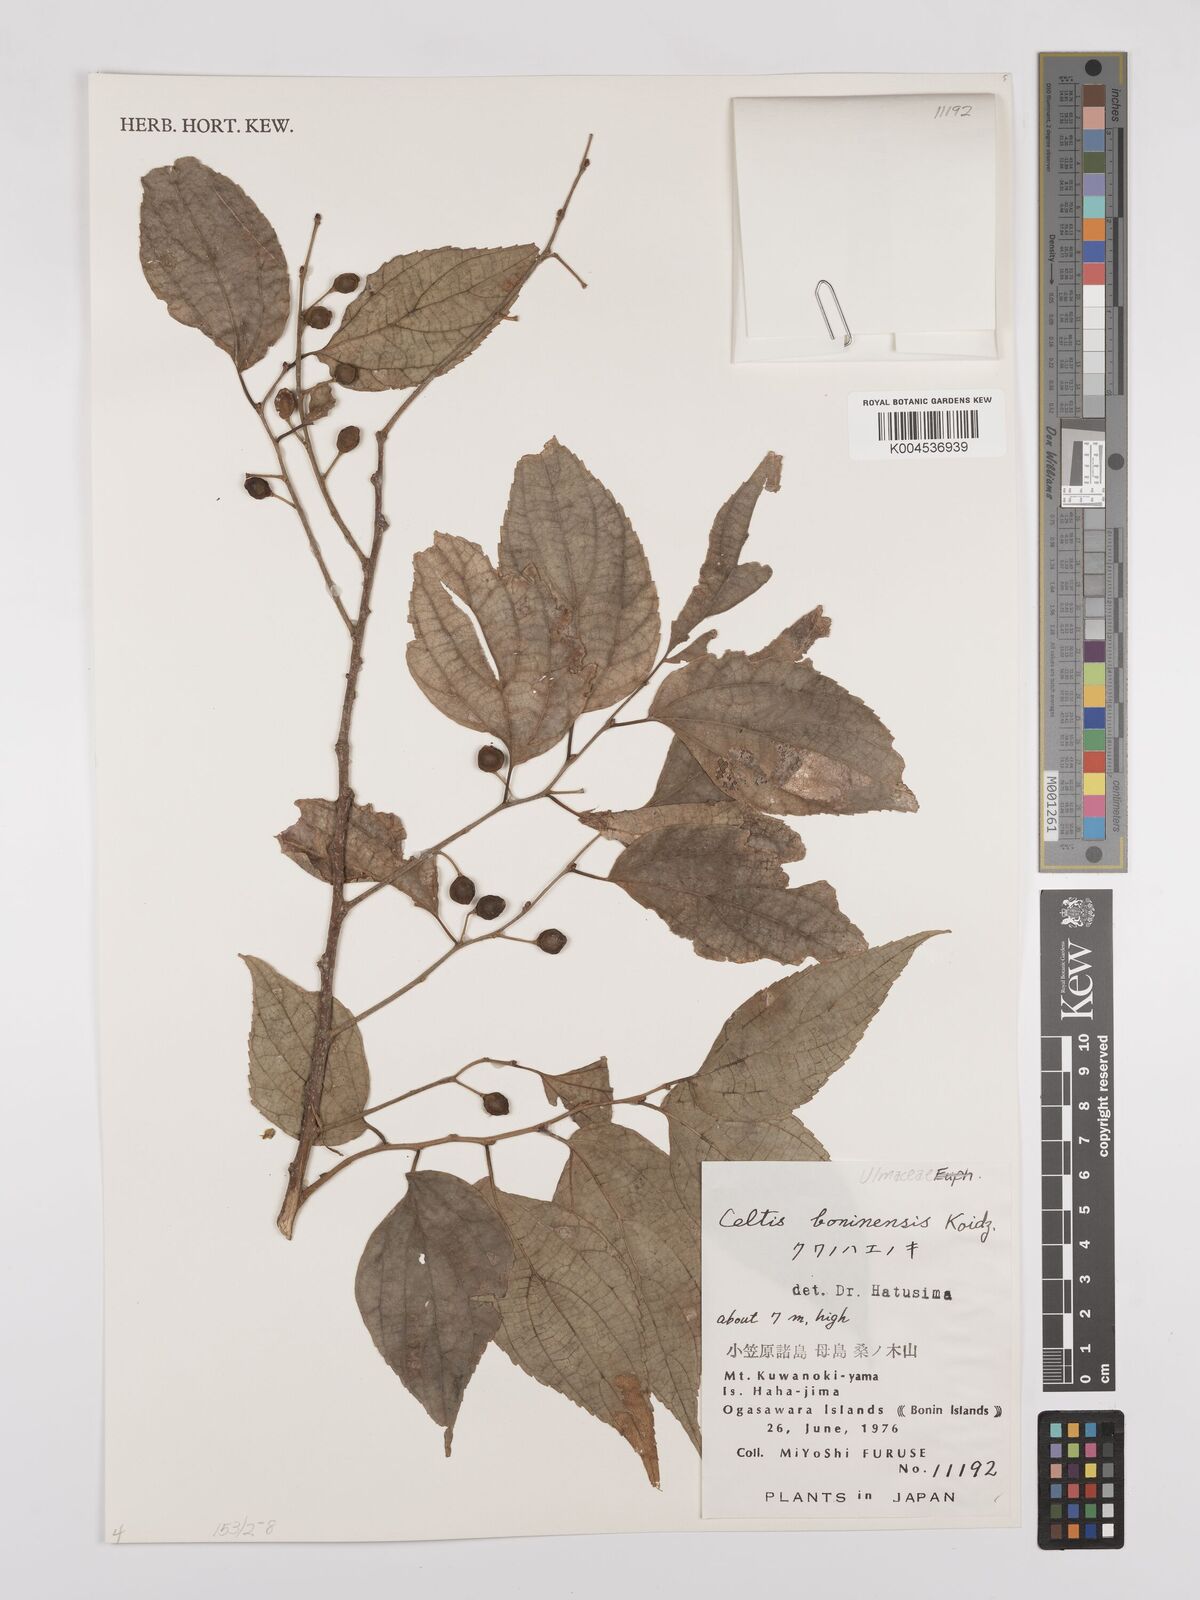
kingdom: Plantae
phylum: Tracheophyta
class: Magnoliopsida
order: Rosales
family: Cannabaceae
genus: Celtis
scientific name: Celtis boninensis
